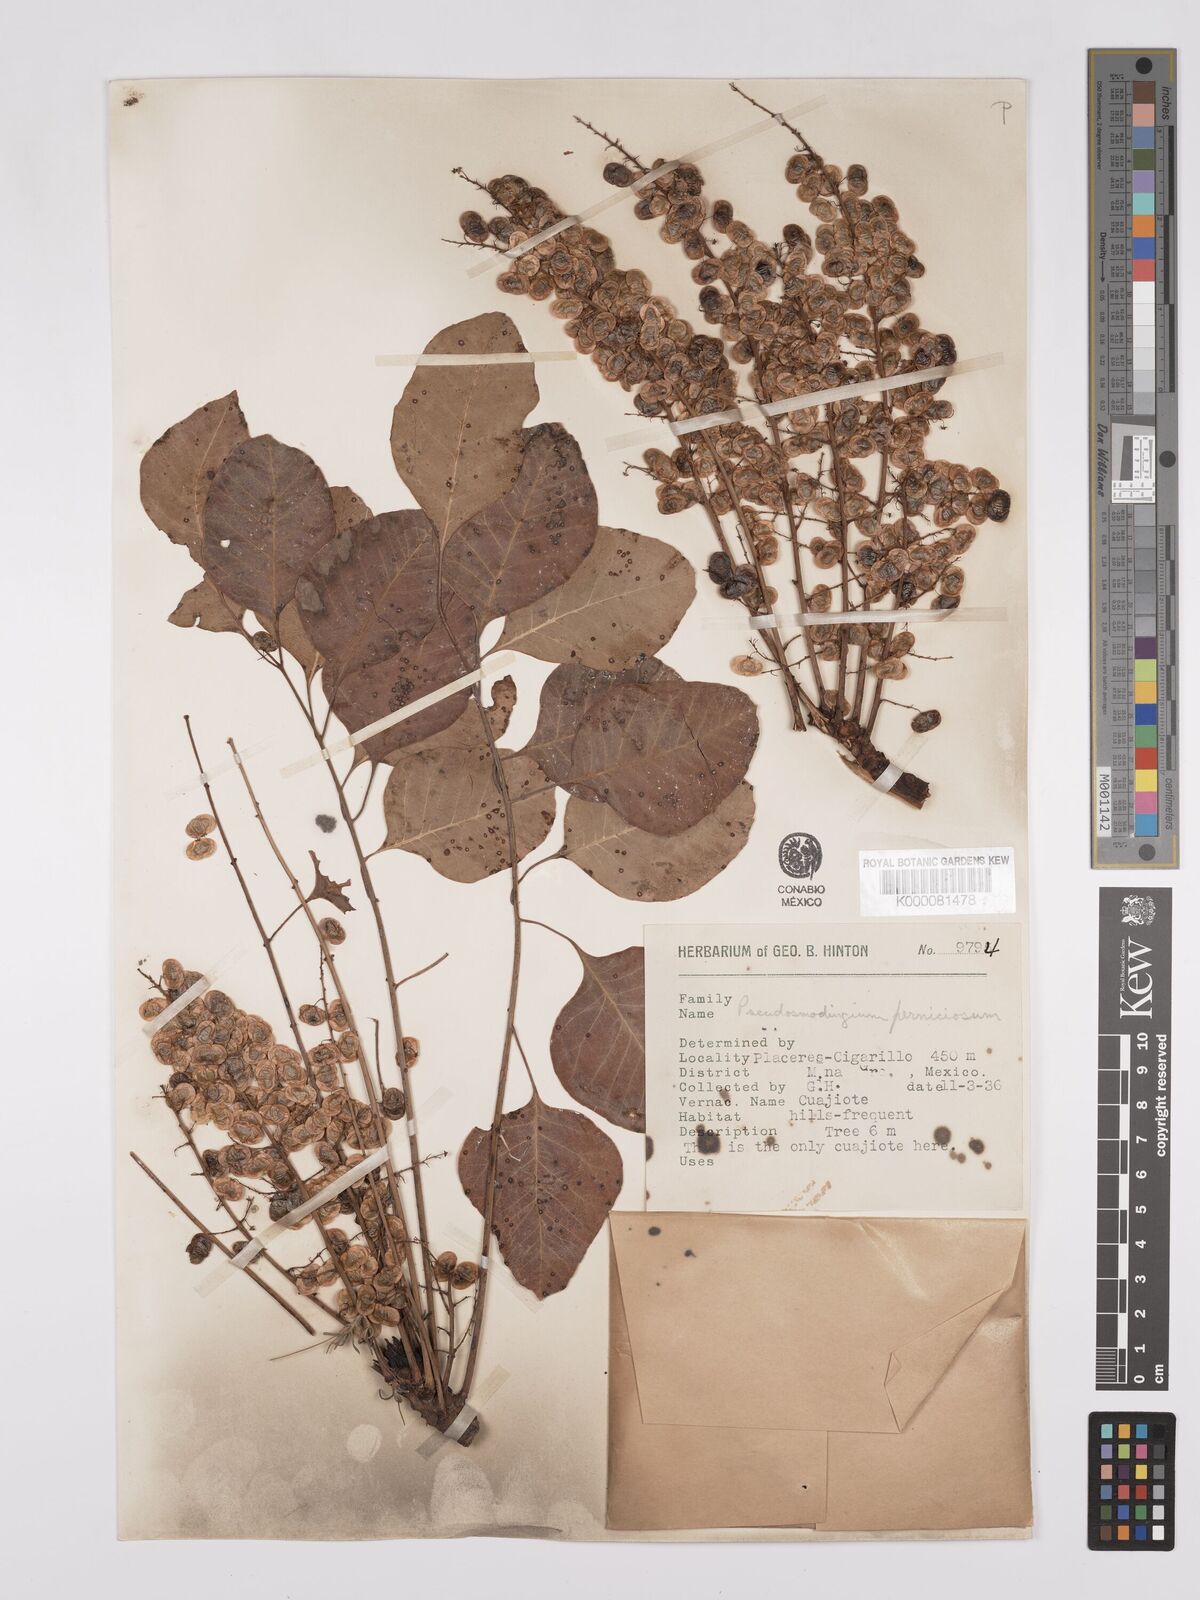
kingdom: Plantae
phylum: Tracheophyta
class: Magnoliopsida
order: Sapindales
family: Anacardiaceae
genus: Pseudosmodingium
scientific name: Pseudosmodingium perniciosum
